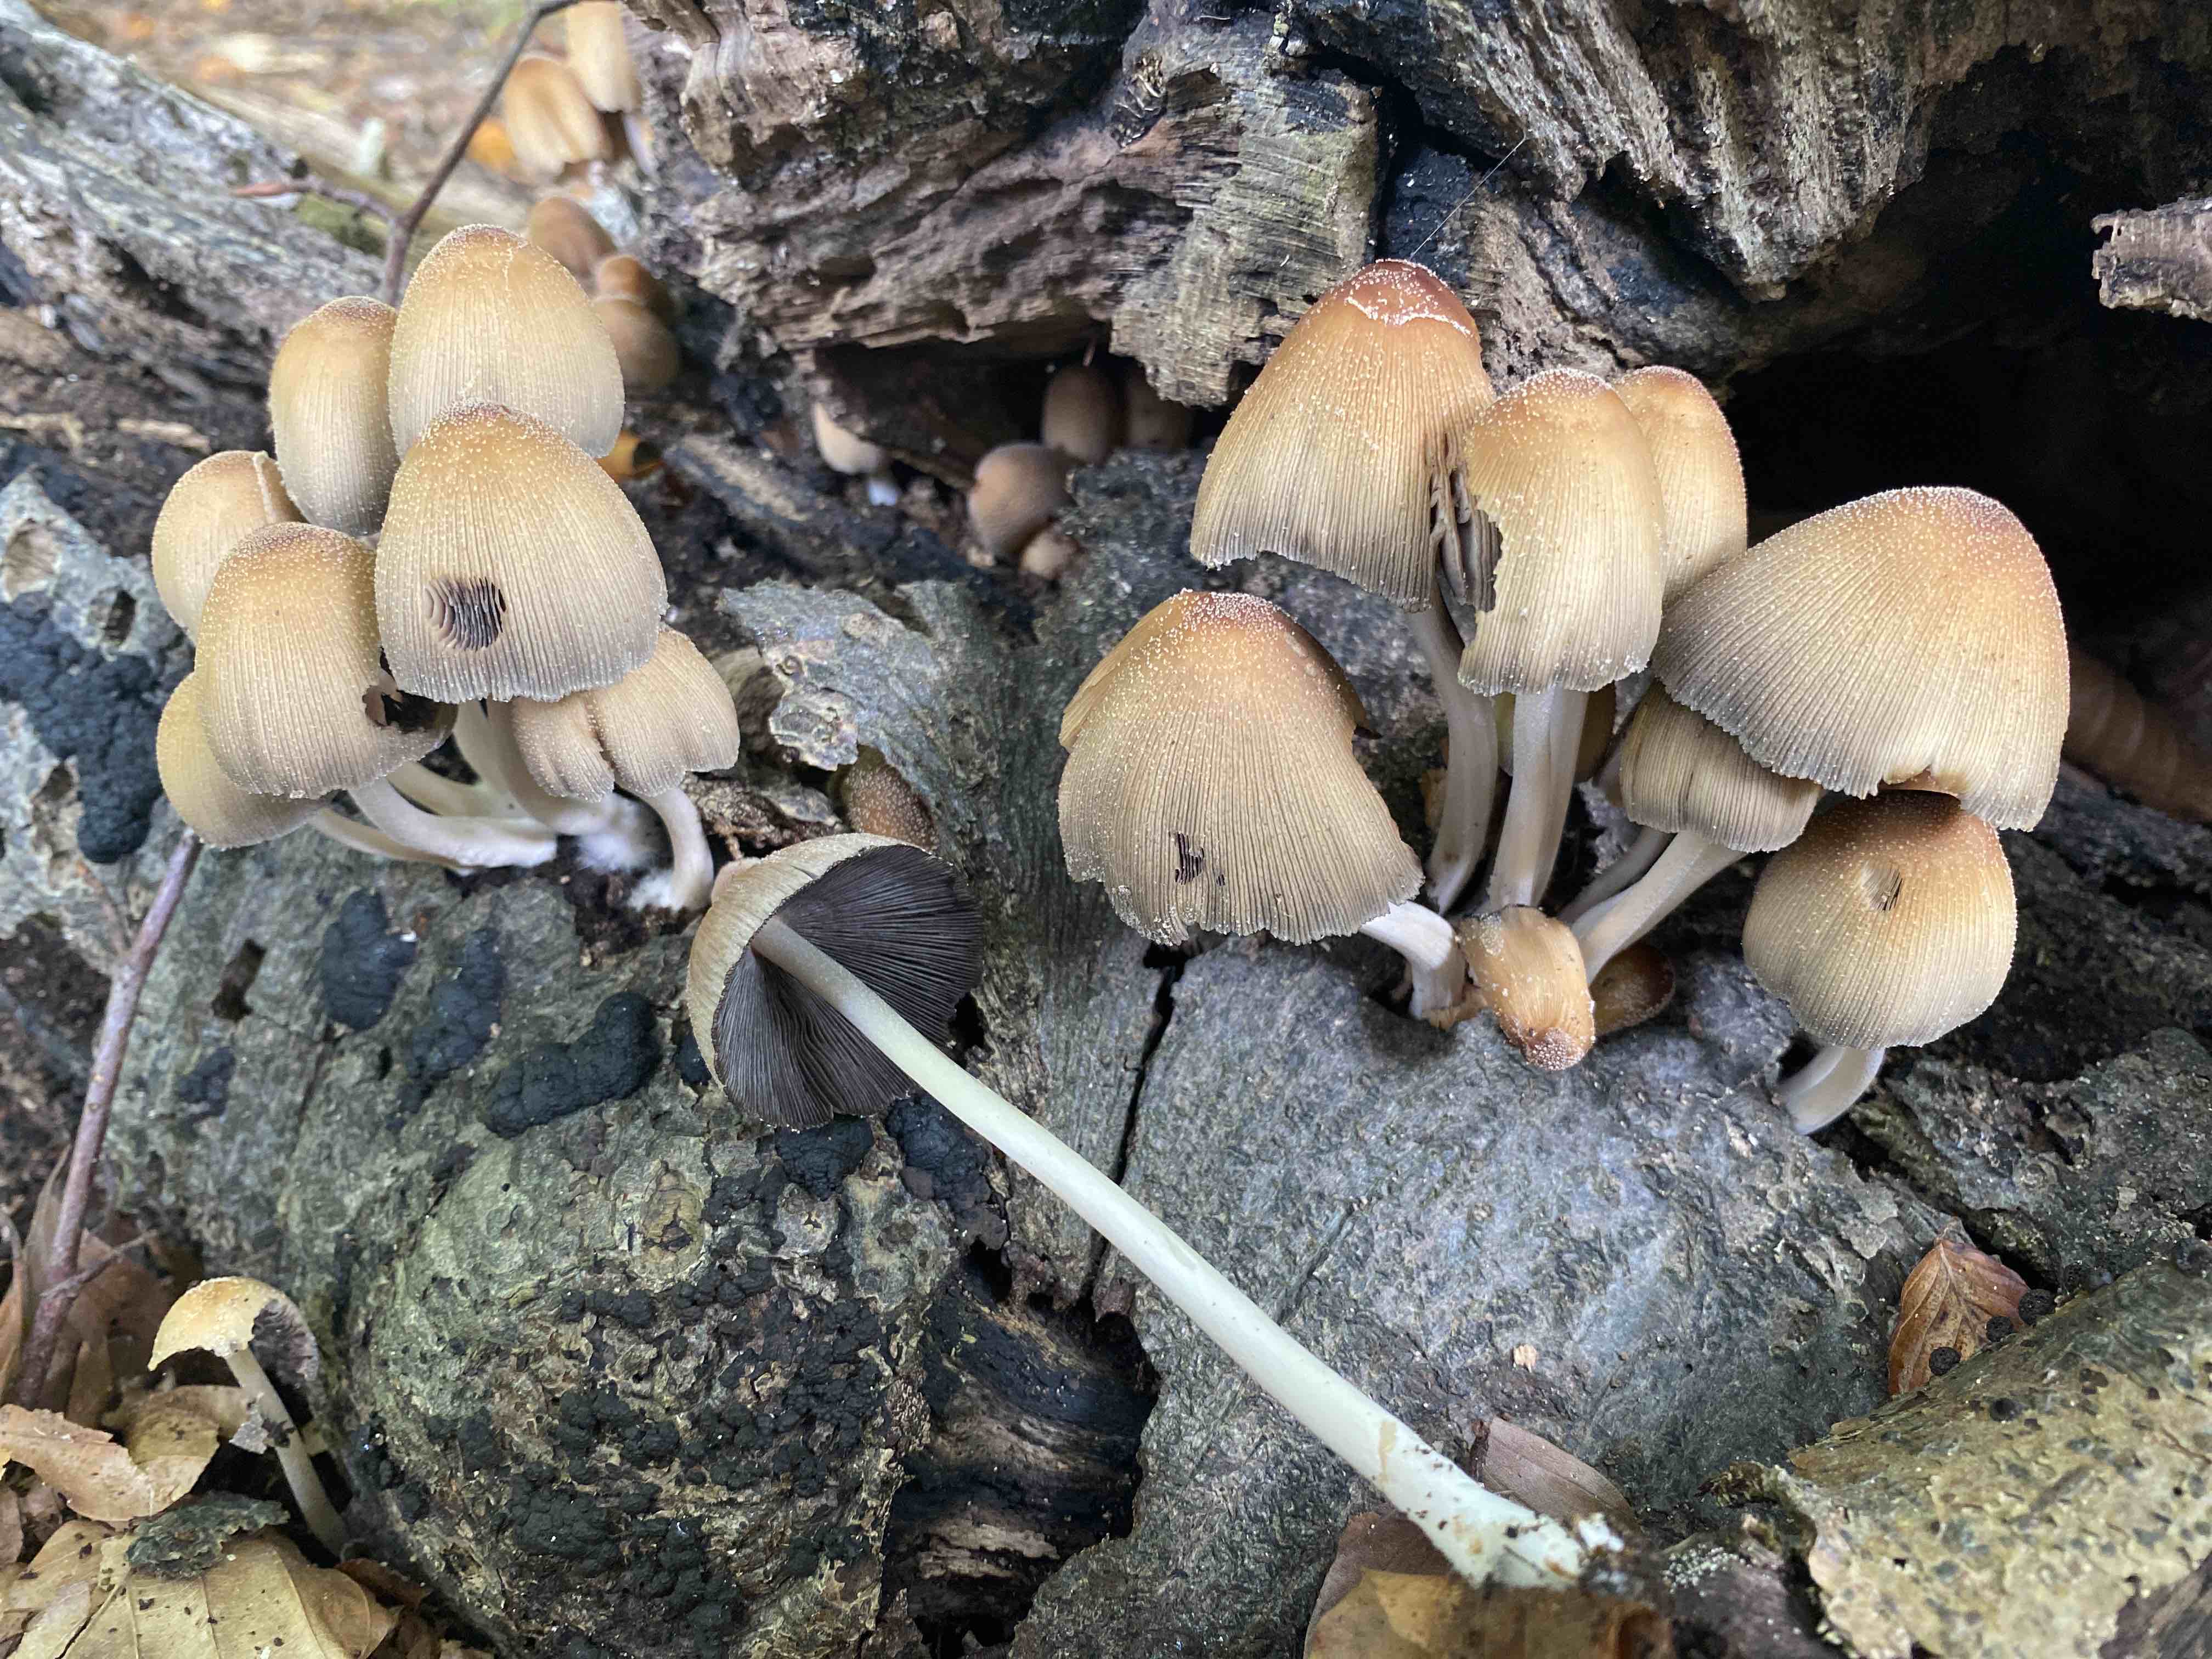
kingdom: Fungi
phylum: Basidiomycota
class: Agaricomycetes
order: Agaricales
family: Psathyrellaceae
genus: Coprinellus
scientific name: Coprinellus micaceus
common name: glimmer-blækhat
